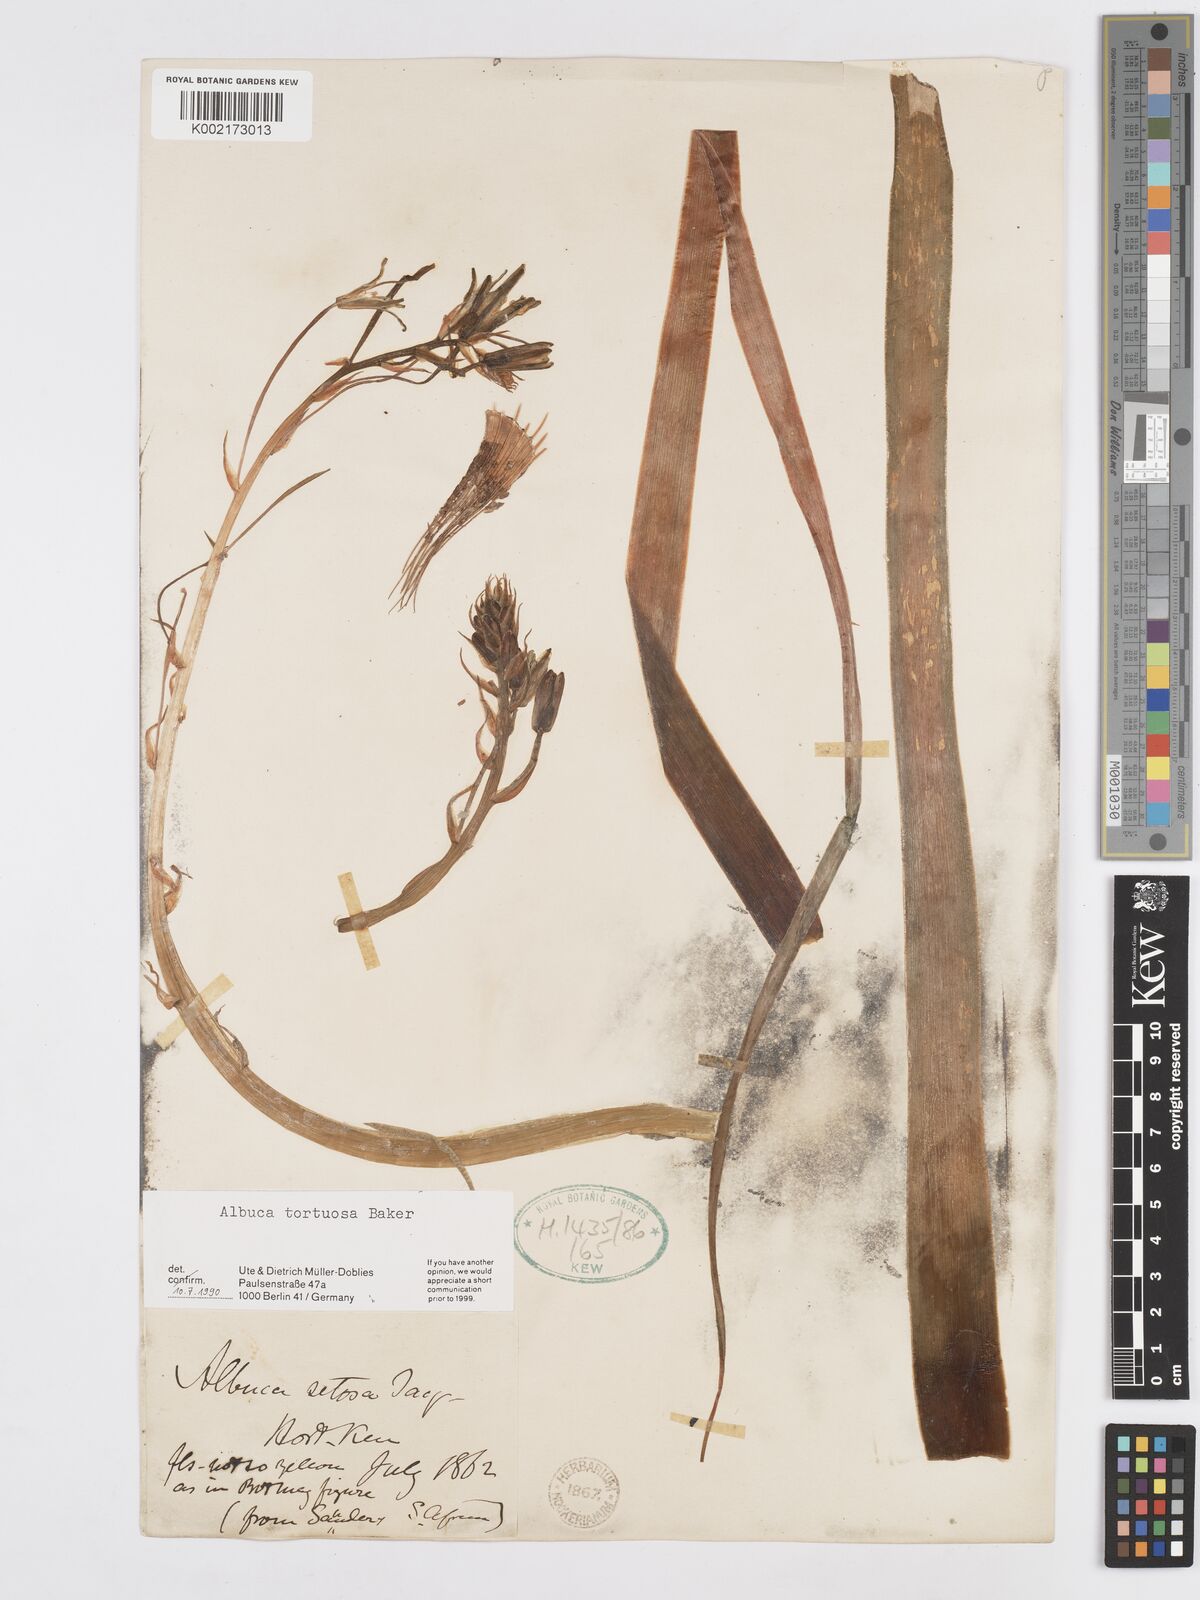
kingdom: Plantae
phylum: Tracheophyta
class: Liliopsida
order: Asparagales
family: Asparagaceae
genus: Albuca
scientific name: Albuca tortuosa
